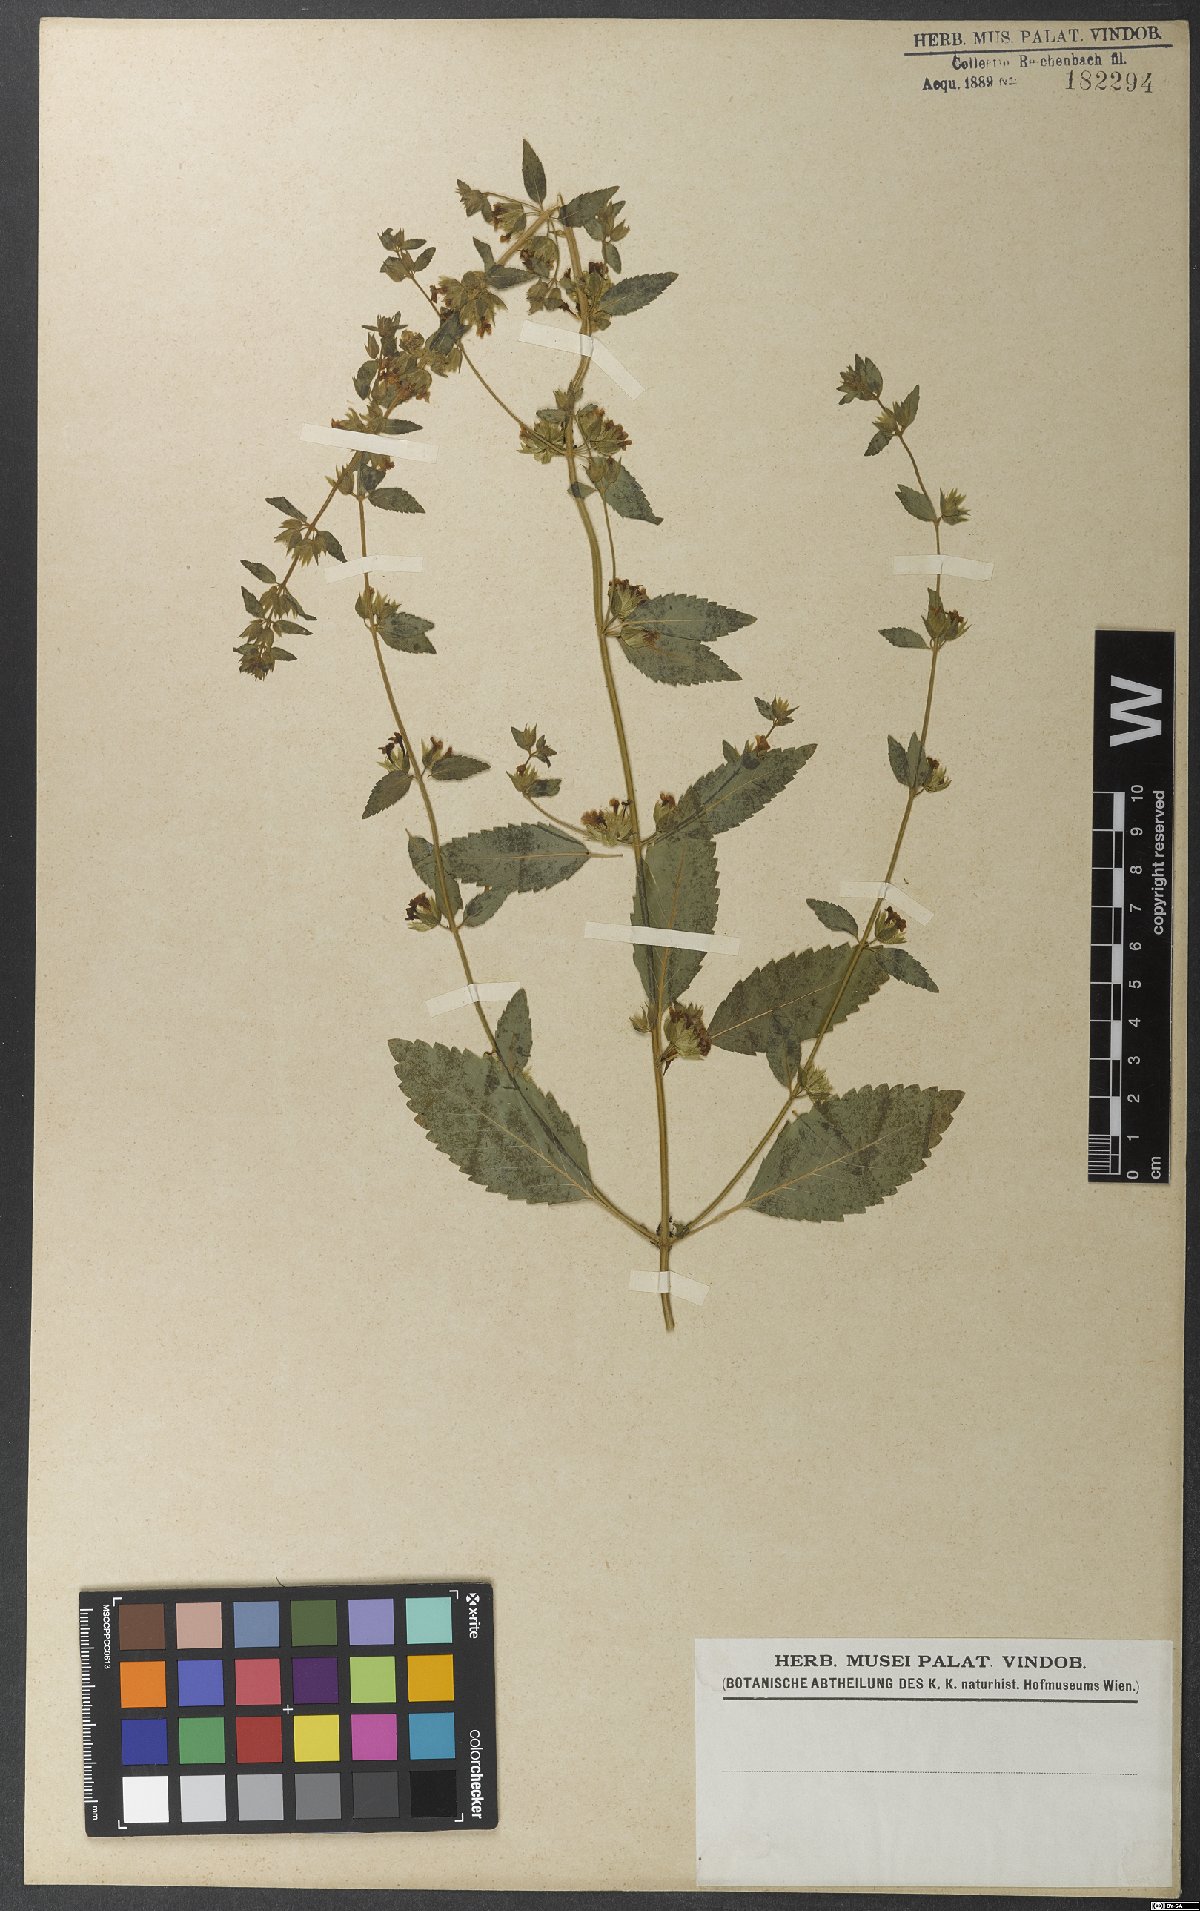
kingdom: Plantae
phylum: Tracheophyta
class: Magnoliopsida
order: Lamiales
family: Lamiaceae
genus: Marsypianthes
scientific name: Marsypianthes chamaedrys
